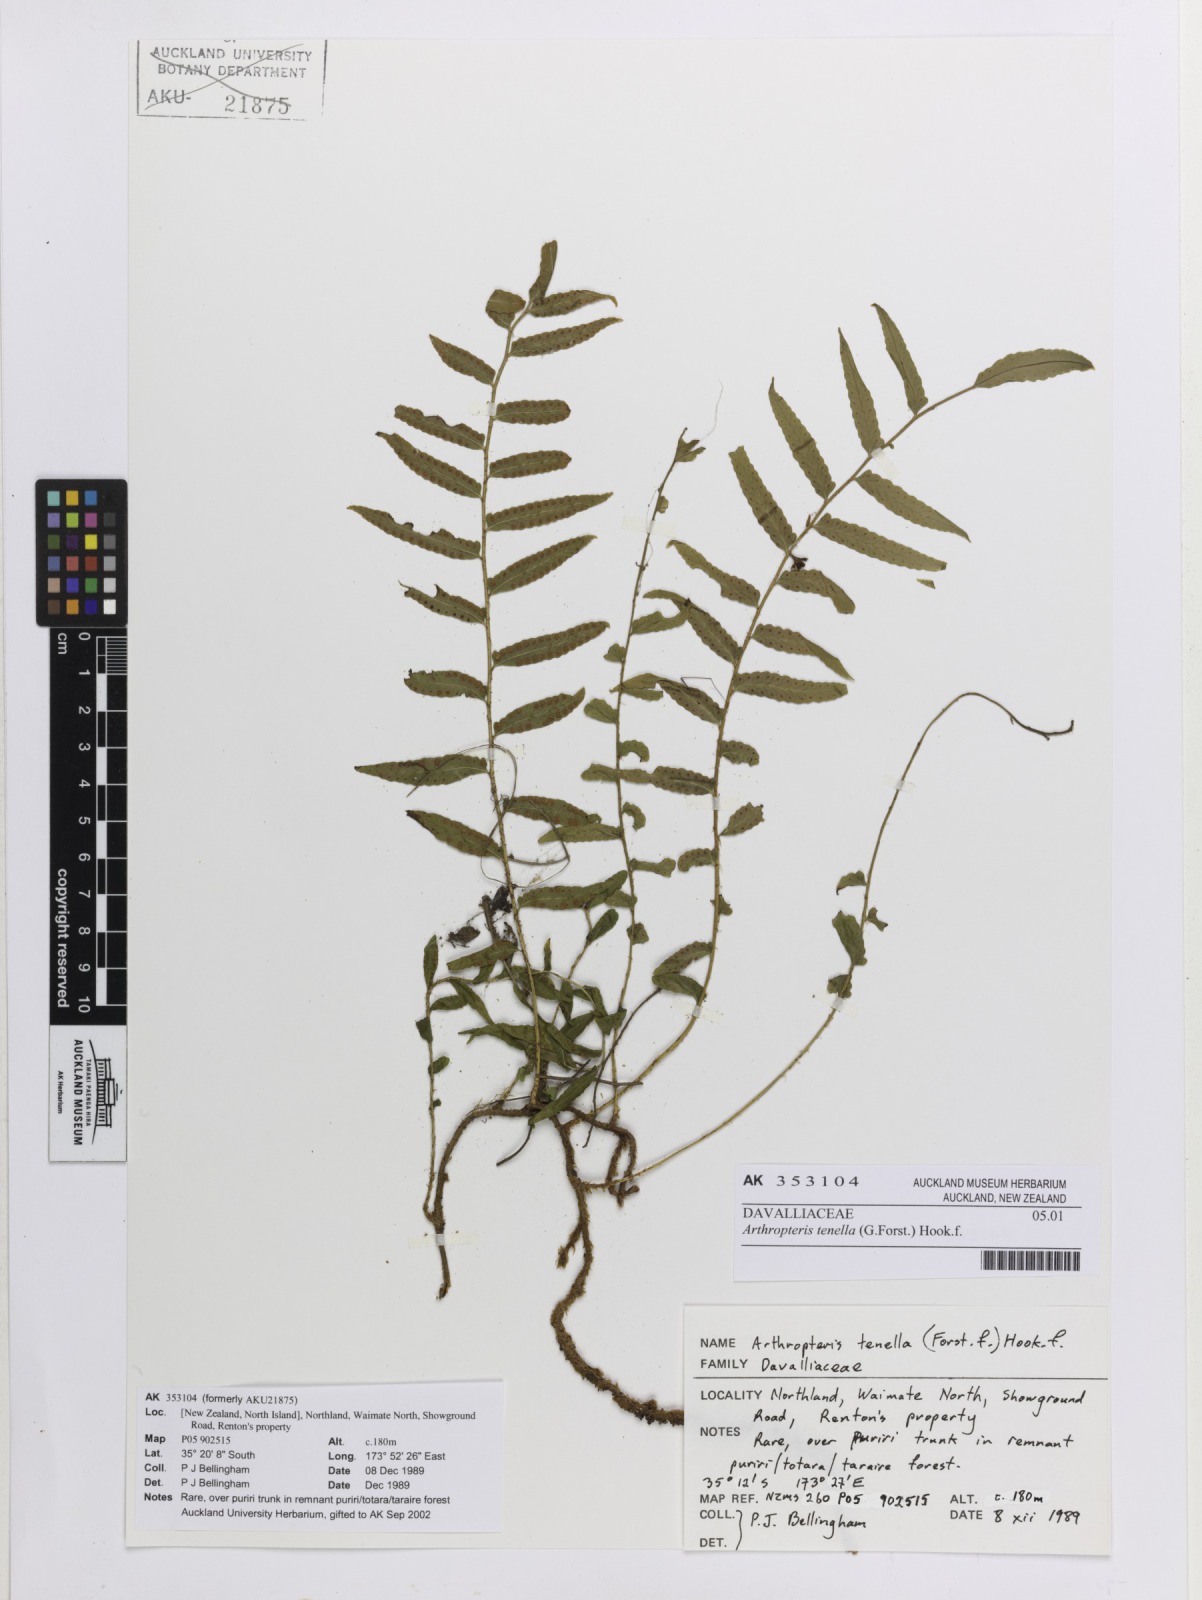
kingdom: Plantae
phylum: Tracheophyta
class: Polypodiopsida
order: Polypodiales
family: Tectariaceae
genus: Arthropteris
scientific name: Arthropteris tenella
